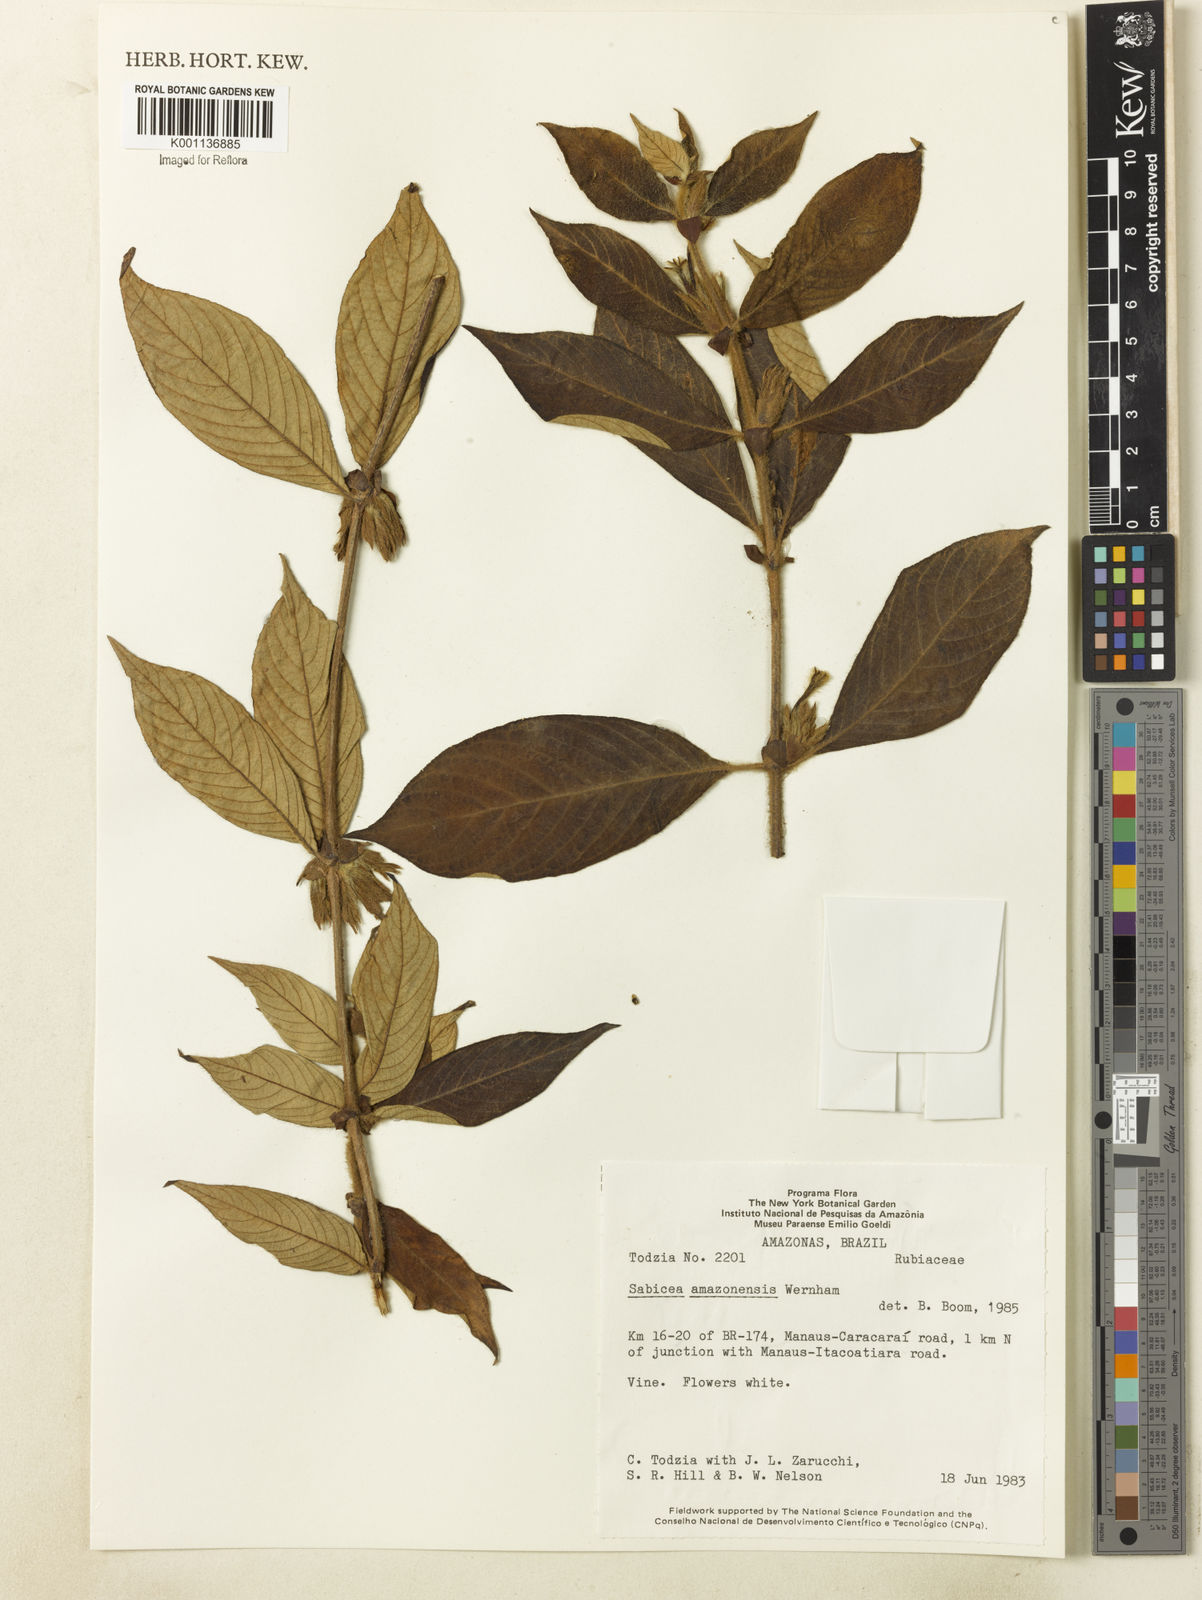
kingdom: Plantae
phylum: Tracheophyta
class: Magnoliopsida
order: Gentianales
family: Rubiaceae
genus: Sabicea
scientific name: Sabicea amazonensis
